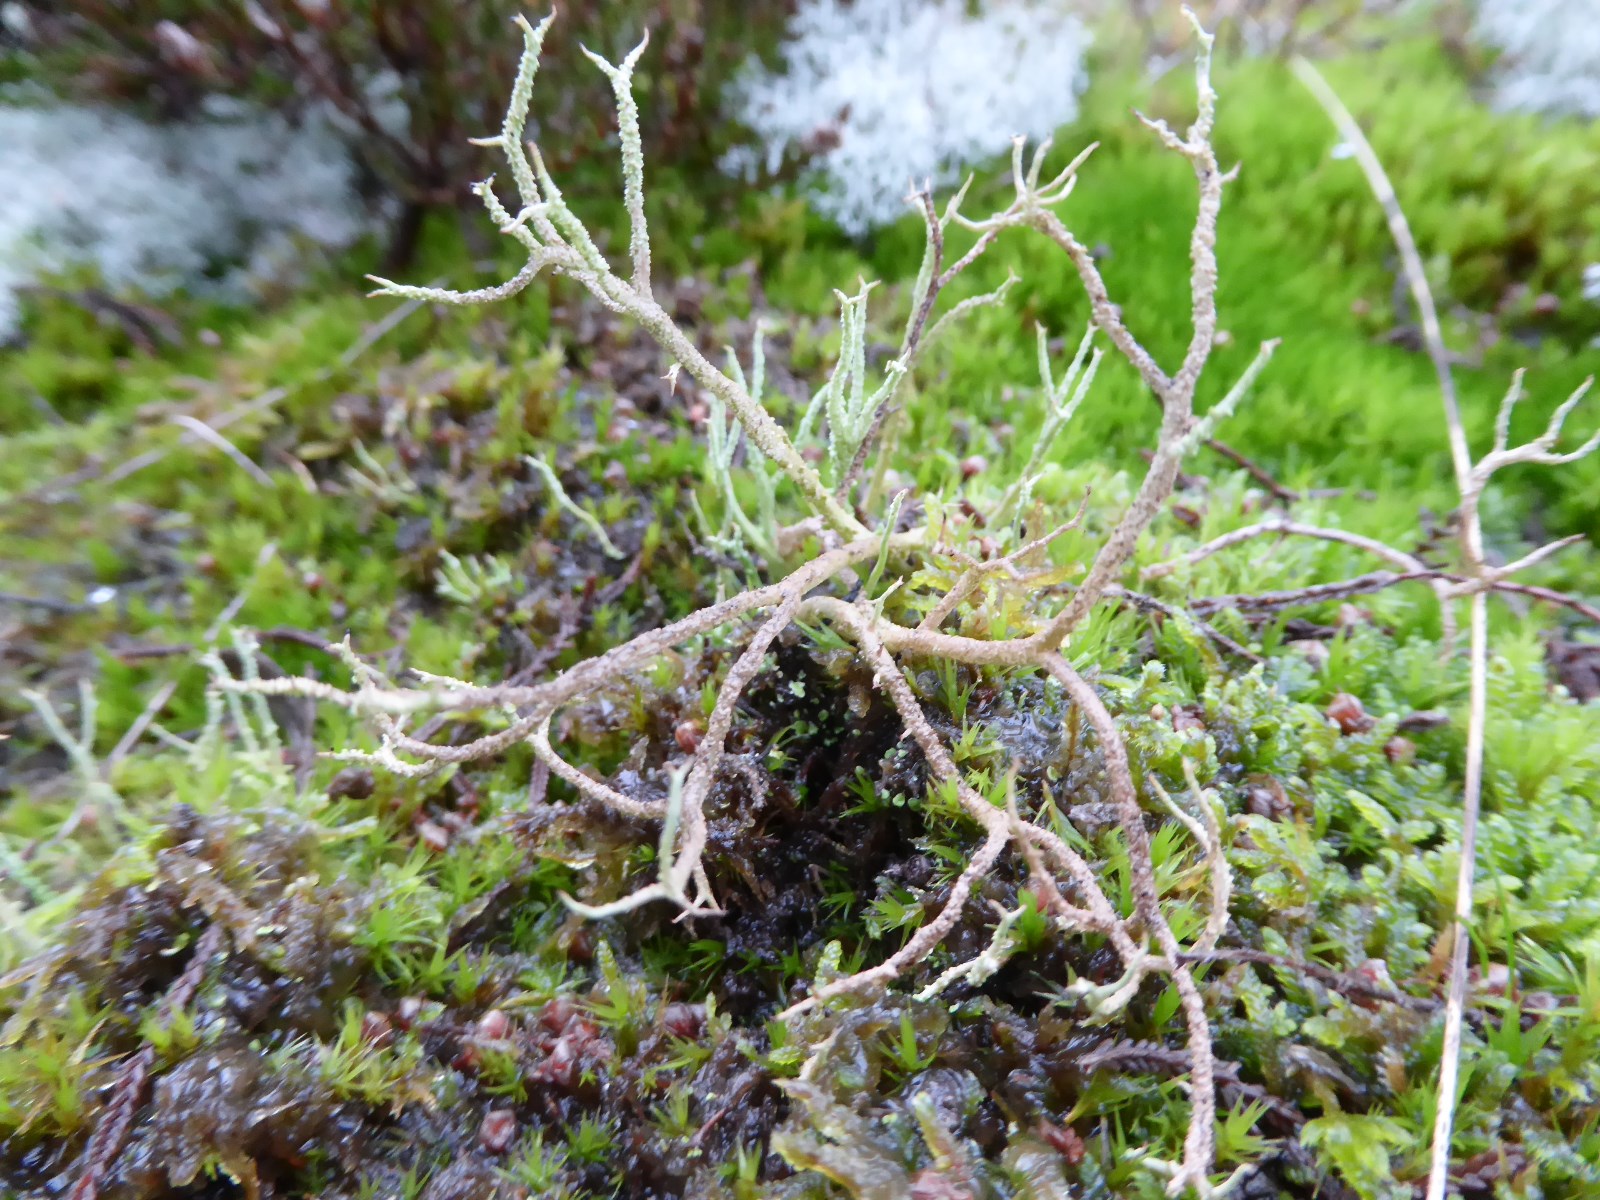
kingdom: Fungi
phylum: Ascomycota
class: Lecanoromycetes
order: Lecanorales
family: Cladoniaceae
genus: Cladonia
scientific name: Cladonia scabriuscula
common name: ru bægerlav
